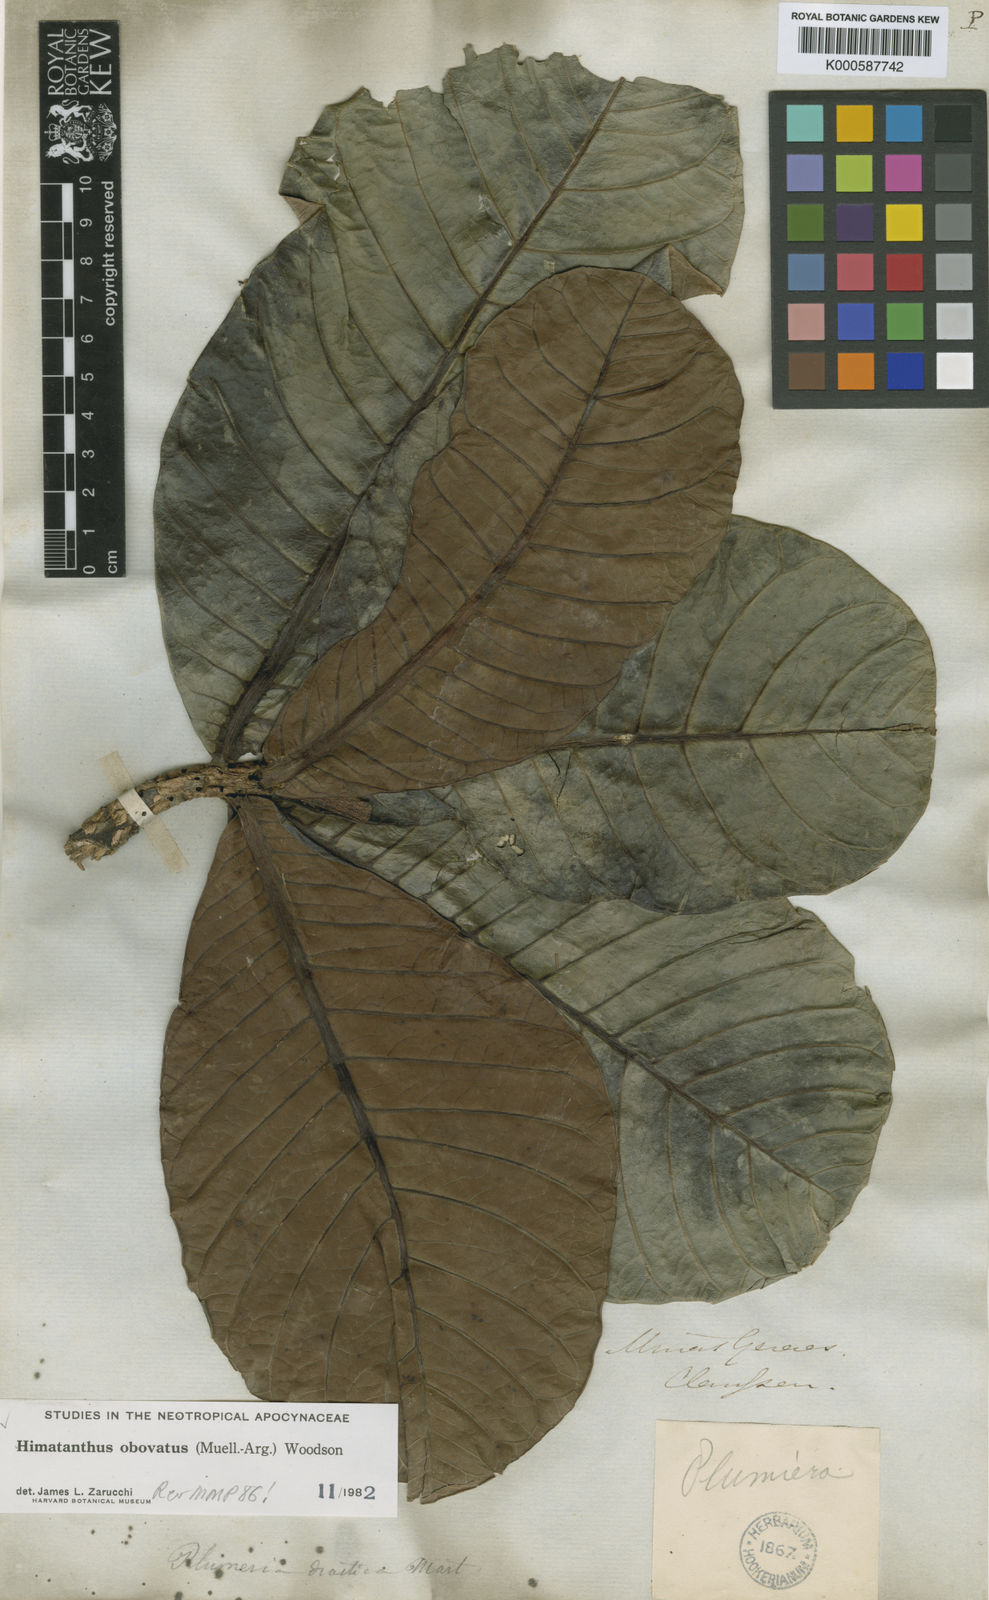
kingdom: Plantae
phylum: Tracheophyta
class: Magnoliopsida
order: Gentianales
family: Apocynaceae
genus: Himatanthus
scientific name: Himatanthus
